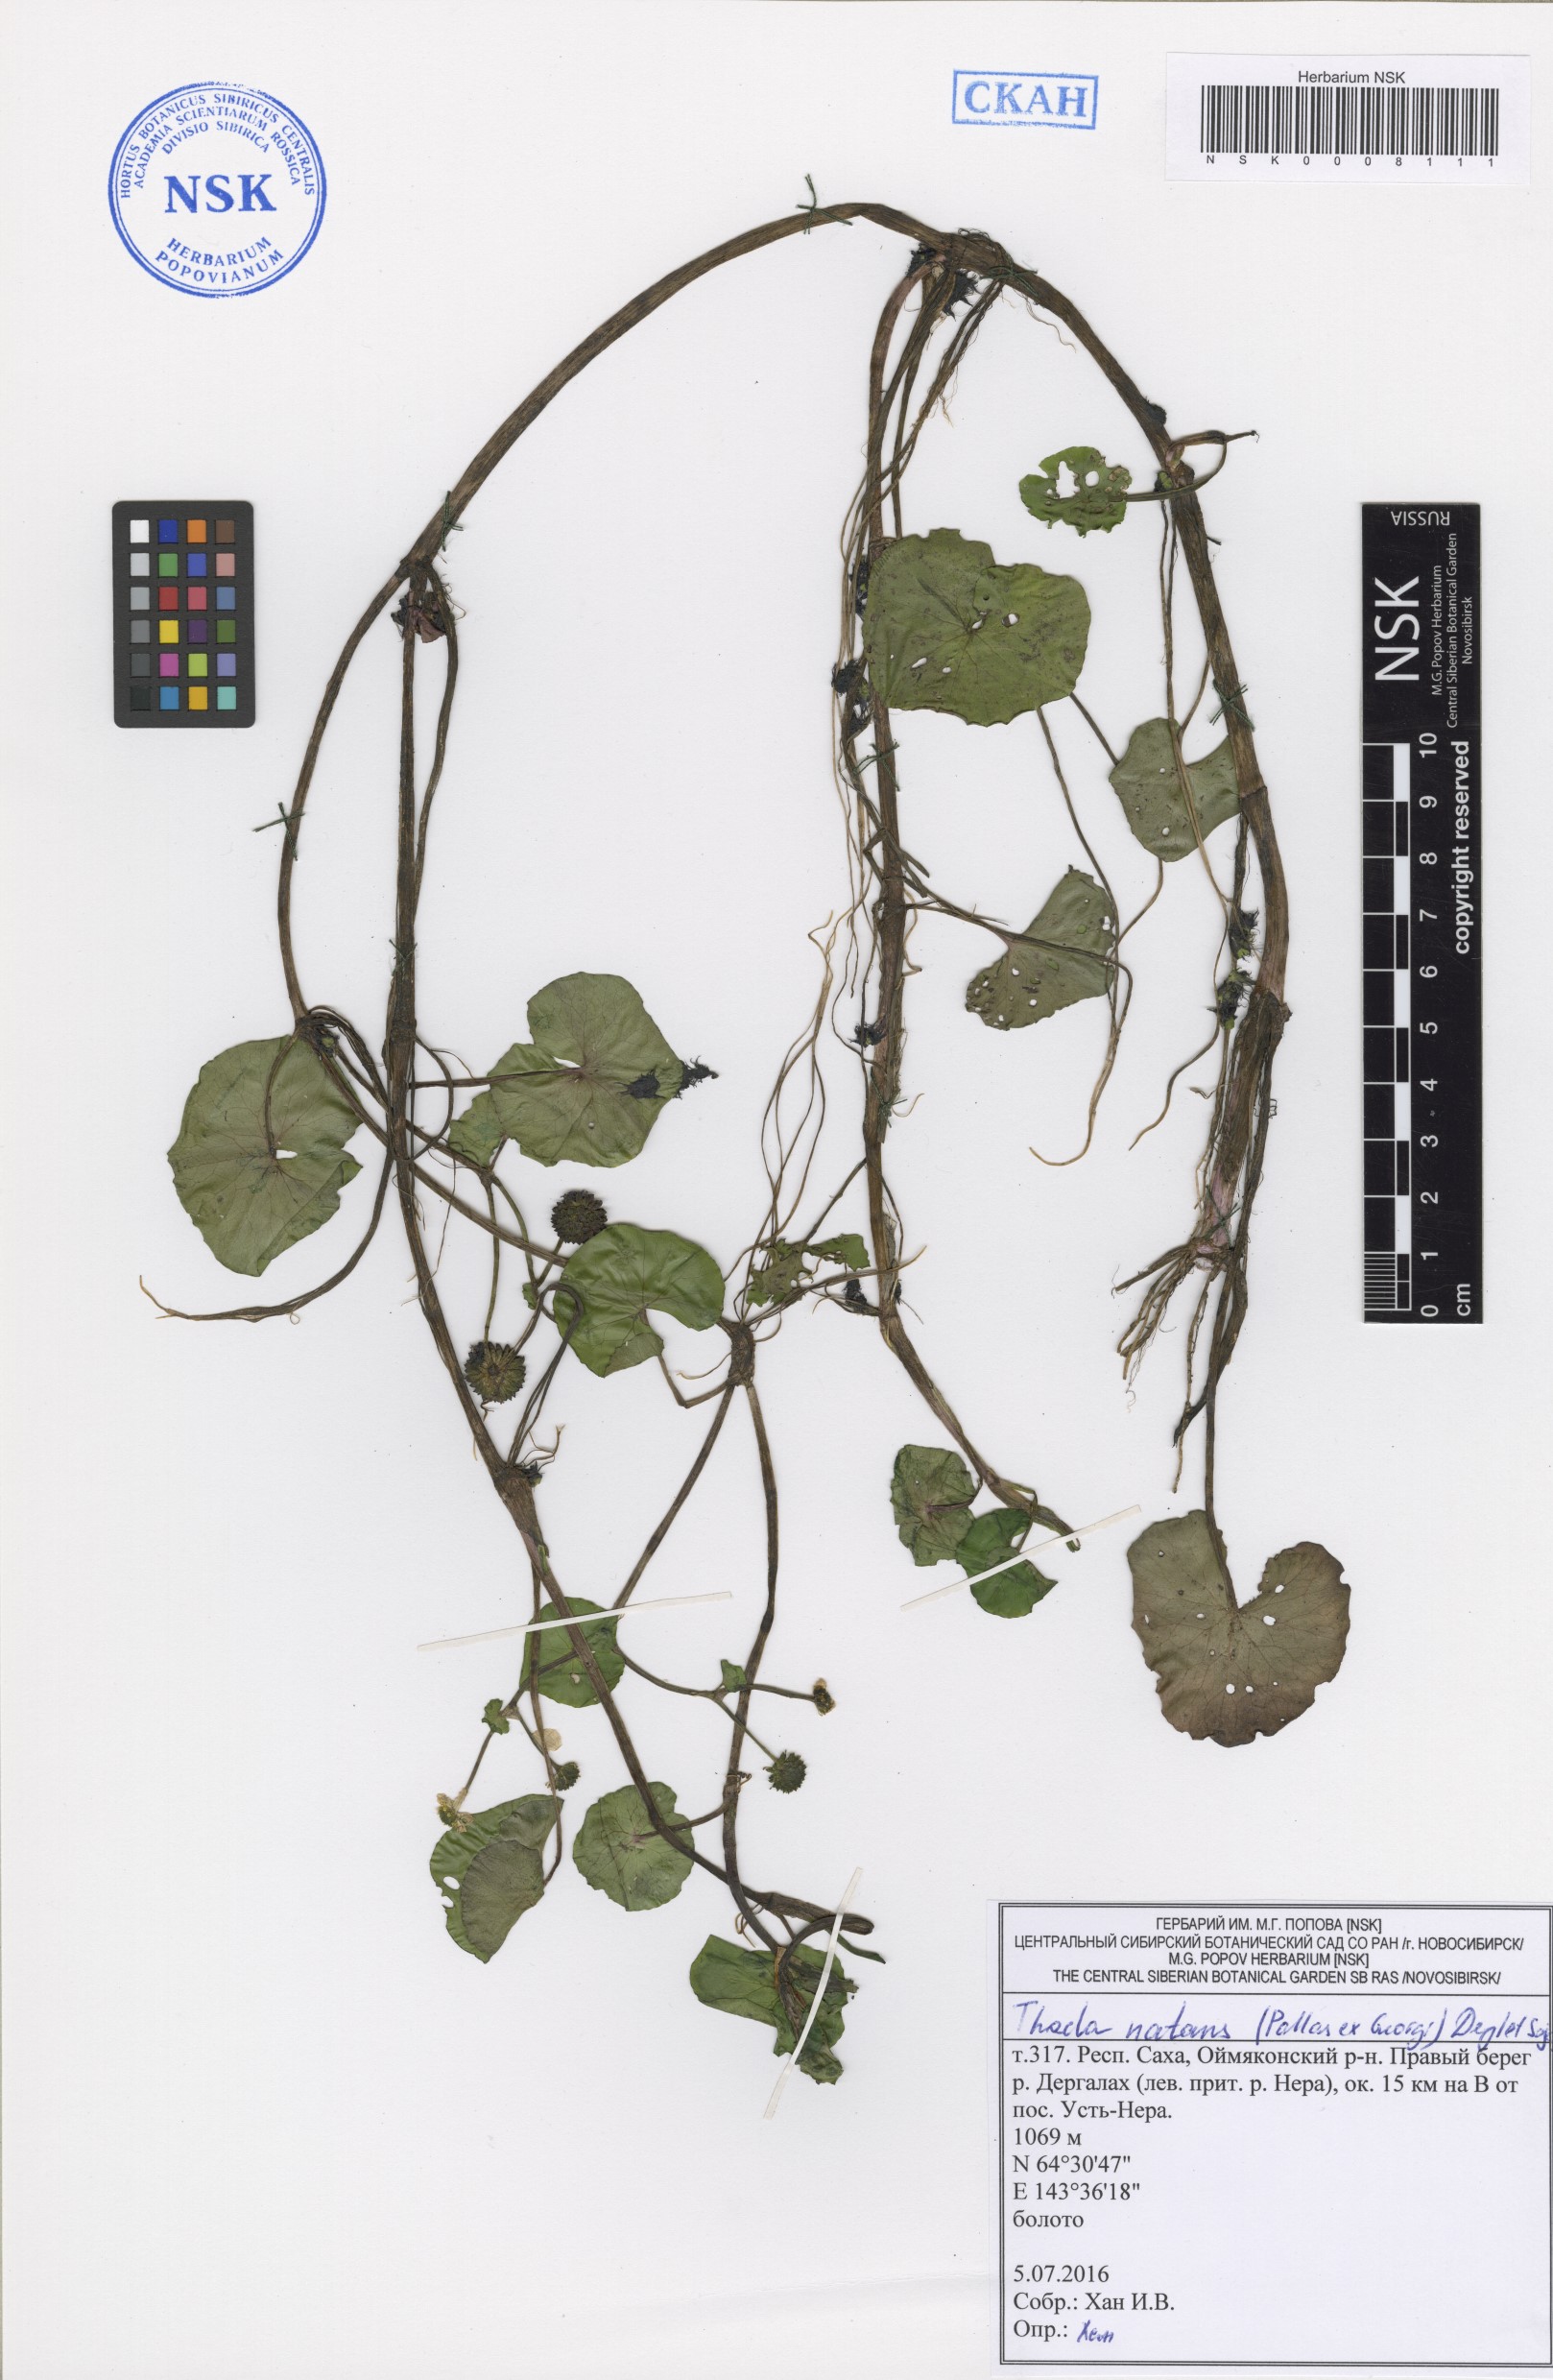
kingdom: Plantae
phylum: Tracheophyta
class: Magnoliopsida
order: Ranunculales
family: Ranunculaceae
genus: Caltha
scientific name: Caltha natans
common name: Floating marsh marigold
